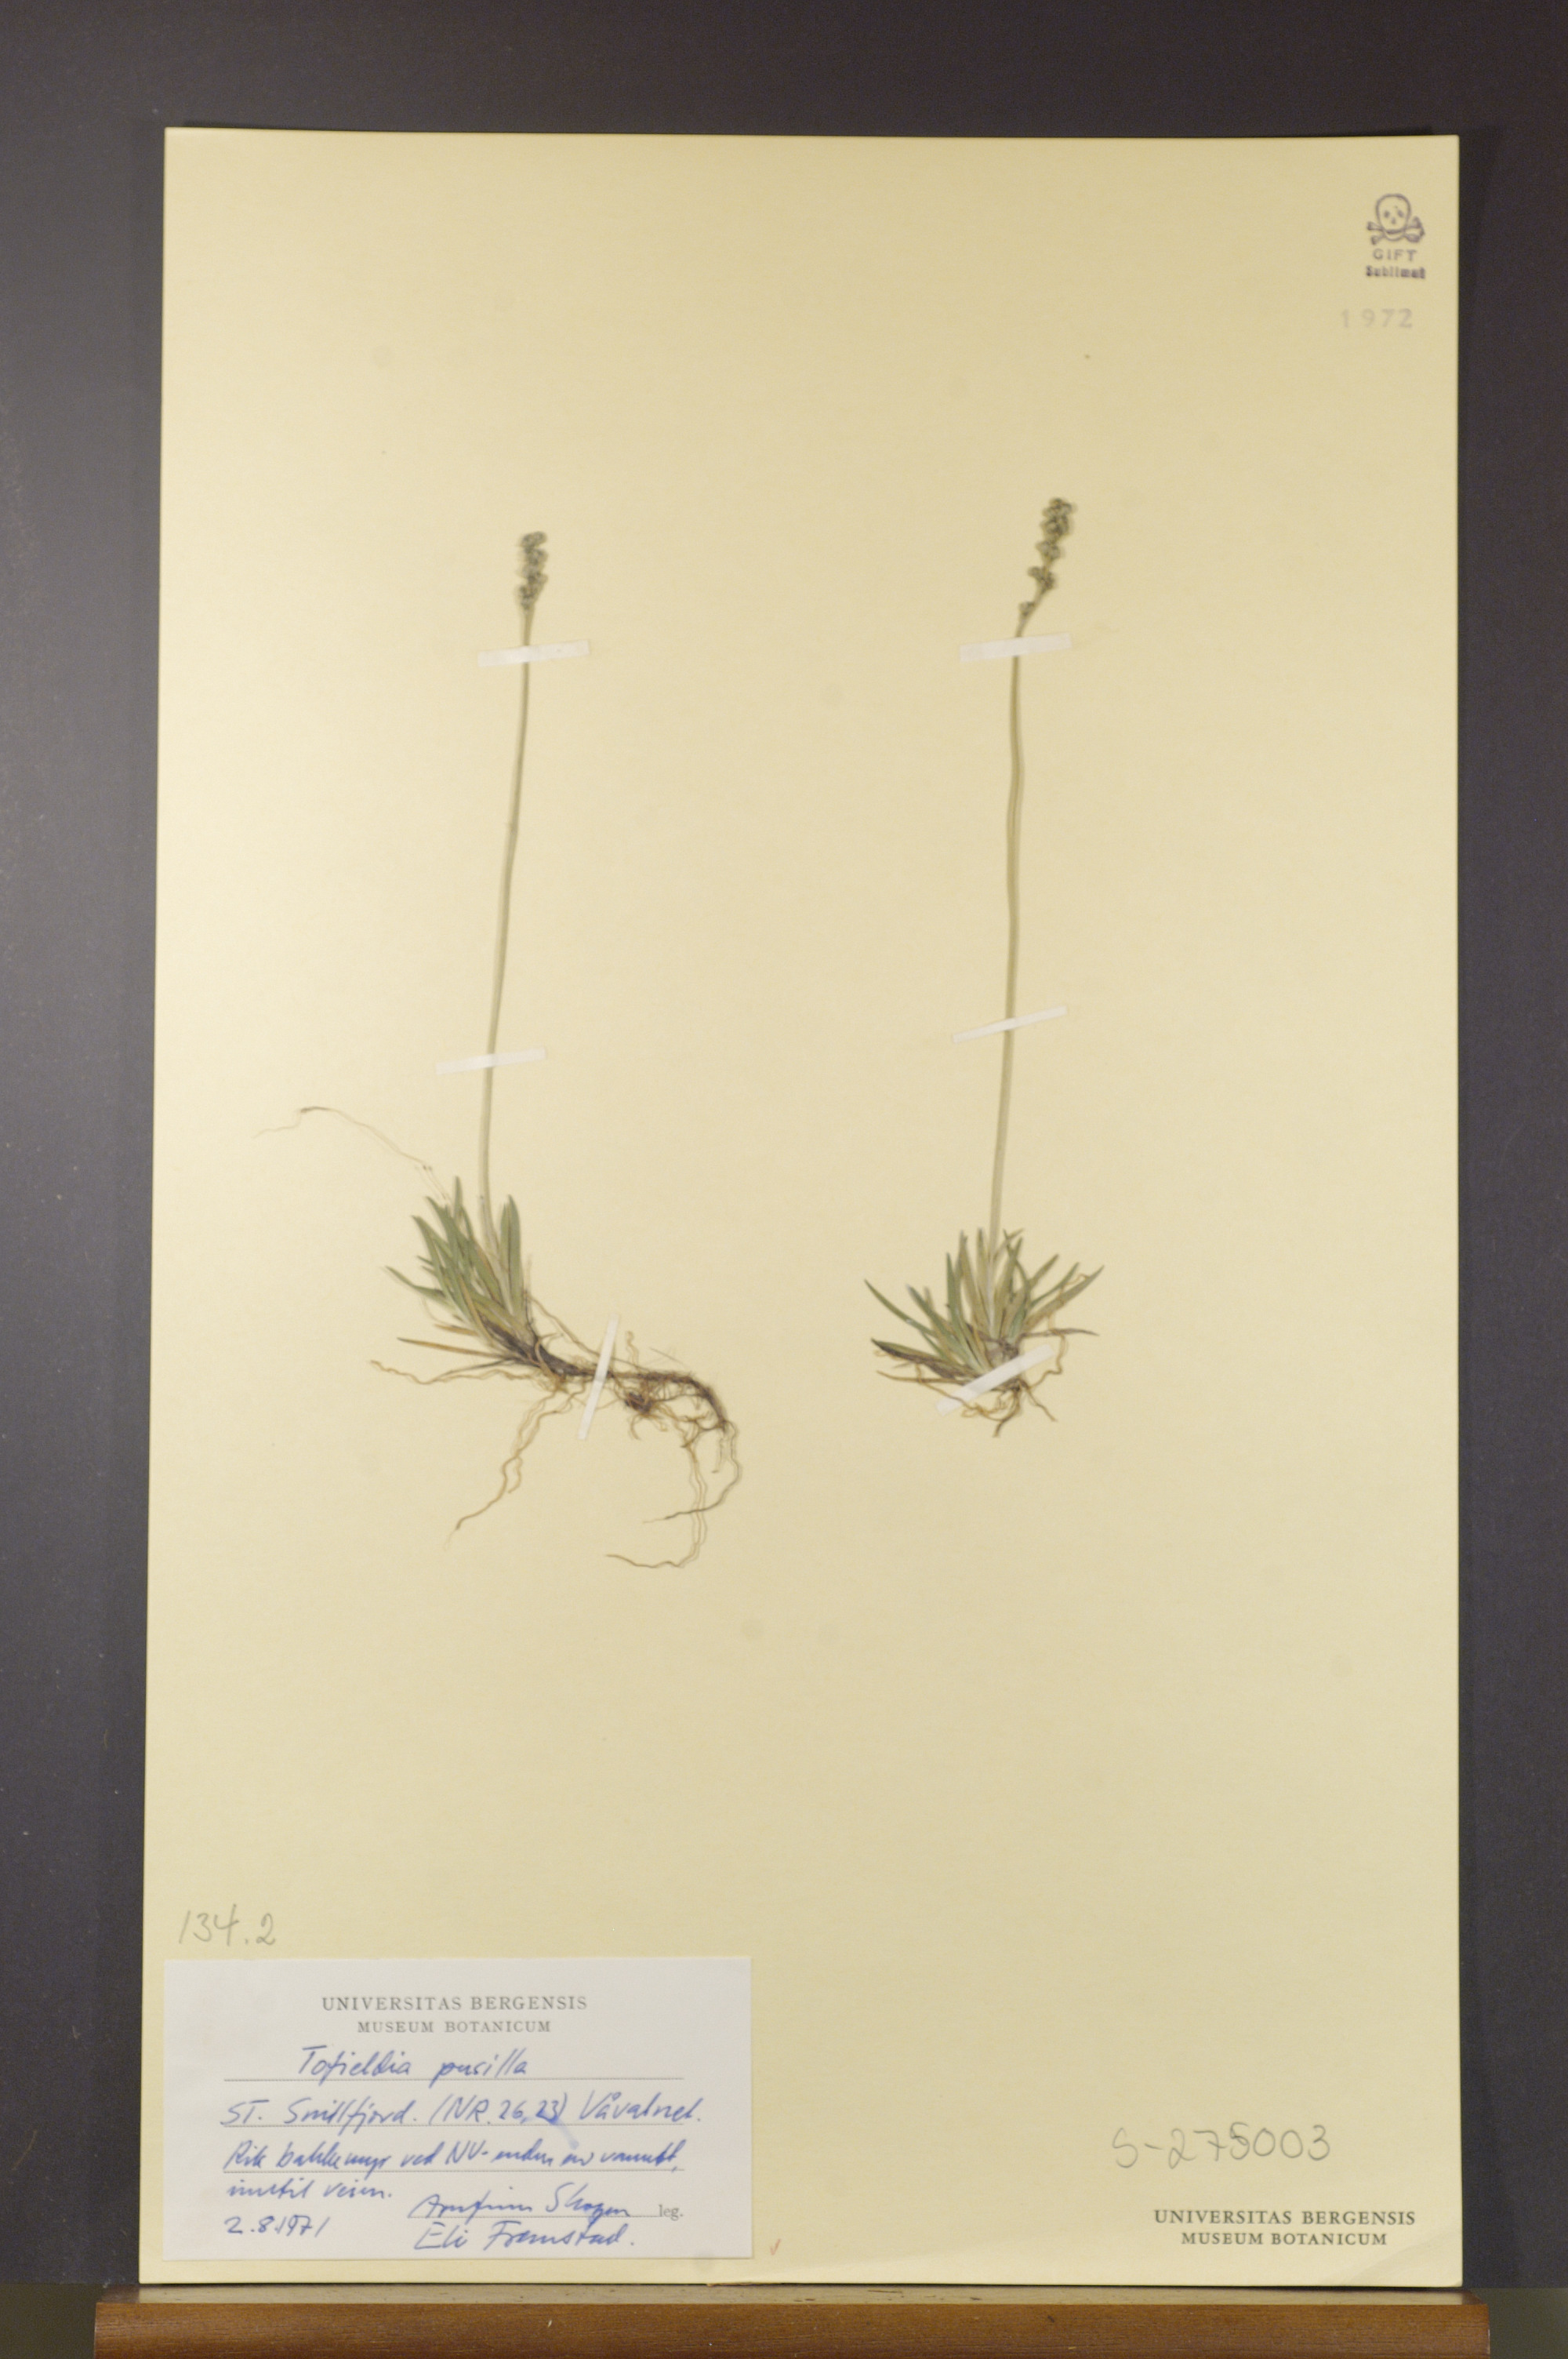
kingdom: Plantae
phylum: Tracheophyta
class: Liliopsida
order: Alismatales
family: Tofieldiaceae
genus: Tofieldia
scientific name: Tofieldia pusilla
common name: Scottish false asphodel
